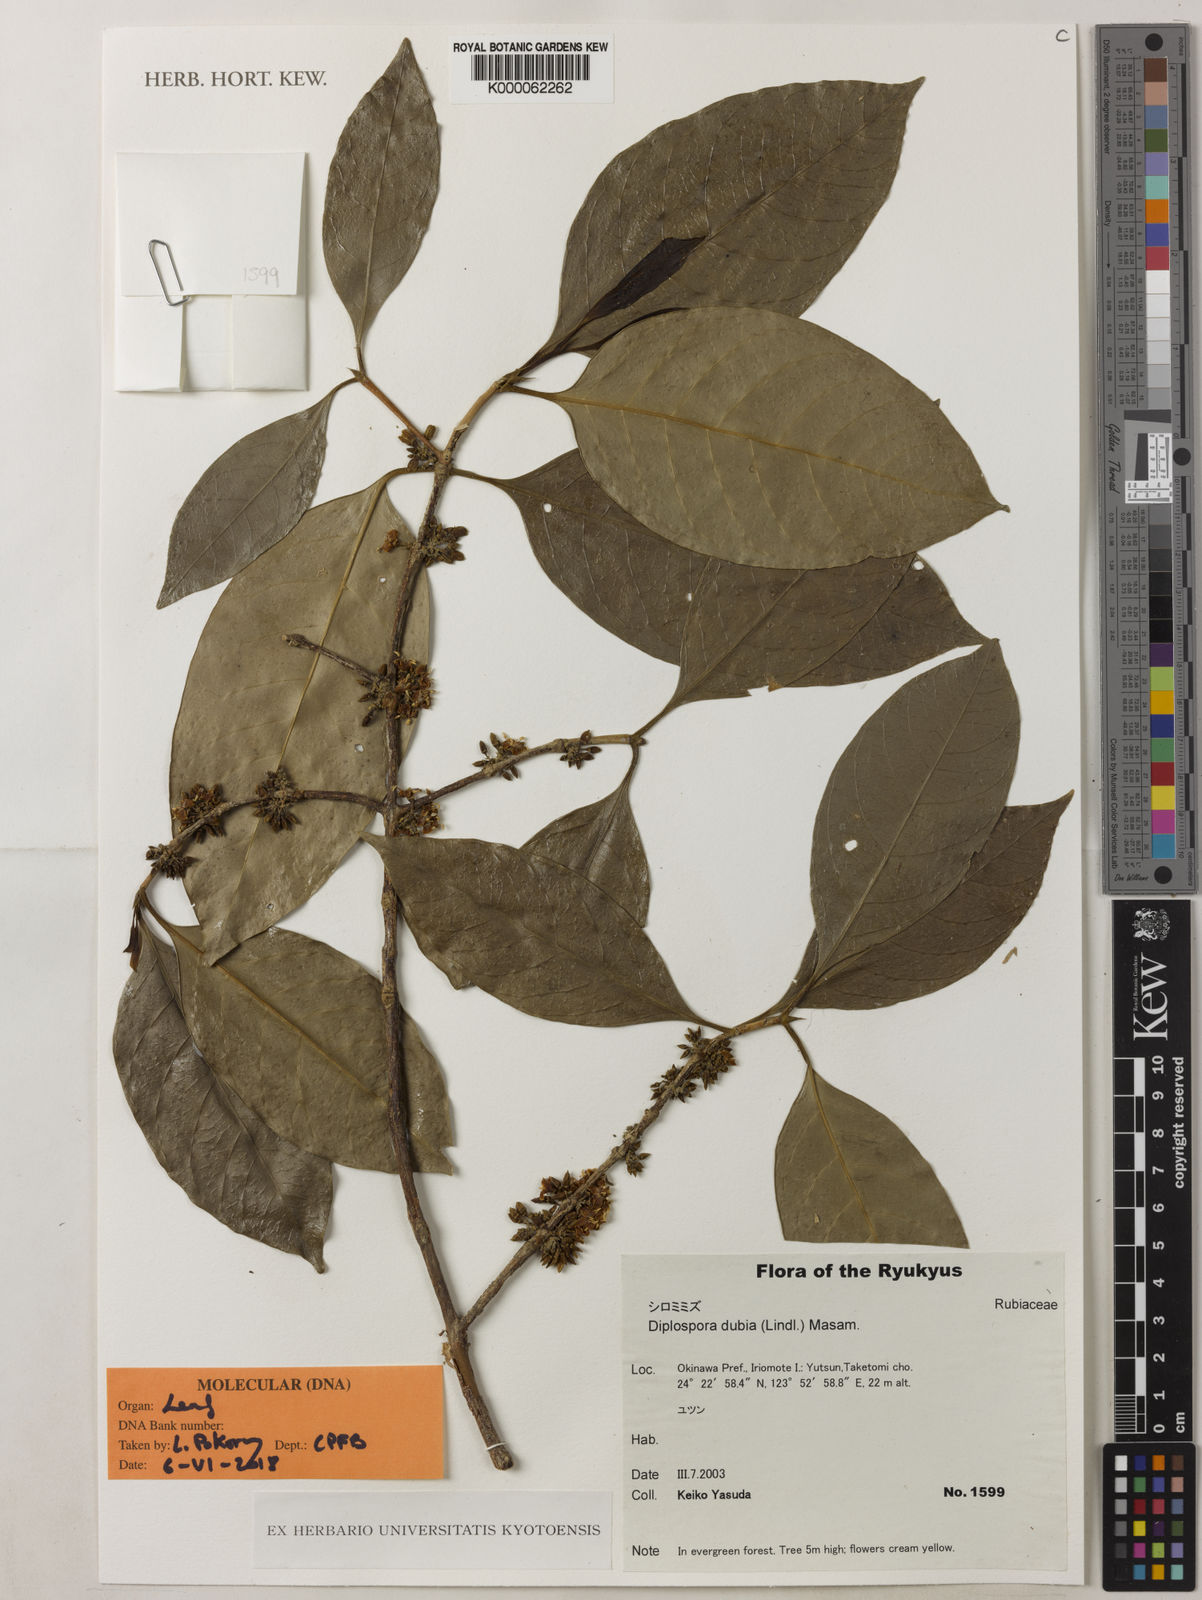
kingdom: Plantae
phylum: Tracheophyta
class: Magnoliopsida
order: Gentianales
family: Rubiaceae
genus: Diplospora
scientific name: Diplospora dubia
